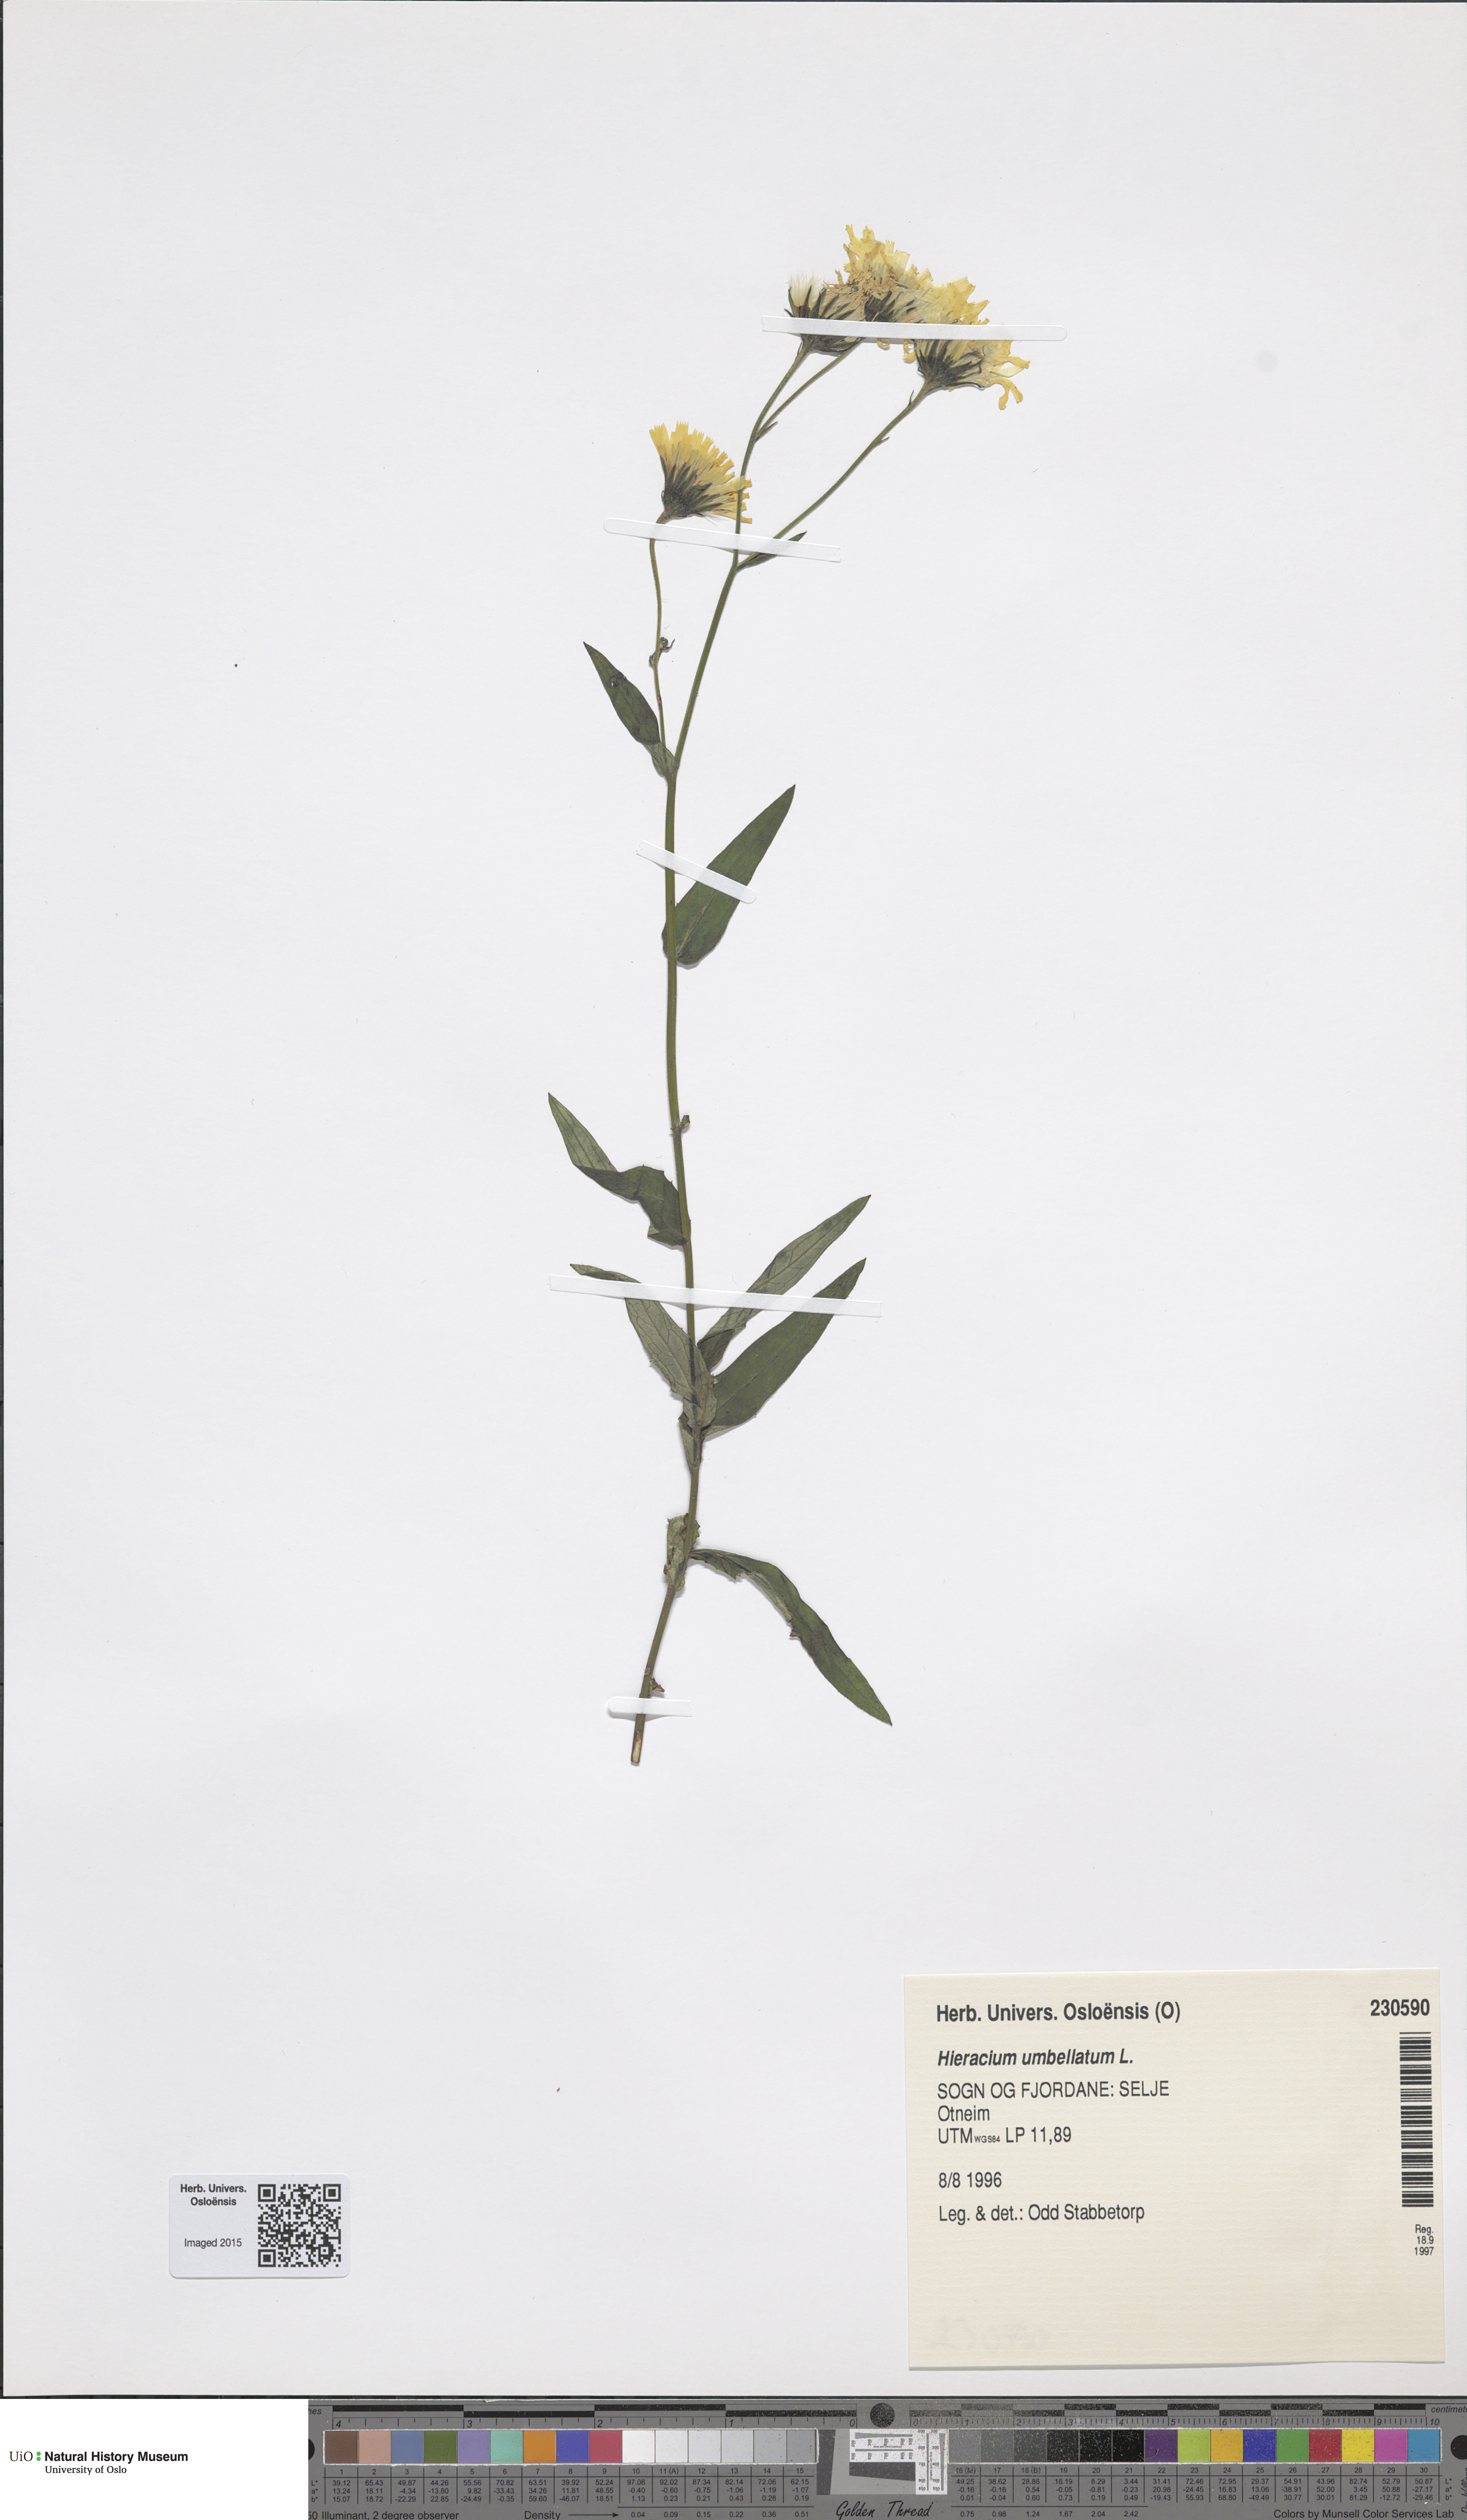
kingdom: Plantae
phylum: Tracheophyta
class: Magnoliopsida
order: Asterales
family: Asteraceae
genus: Hieracium
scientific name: Hieracium umbellatum
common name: Northern hawkweed
